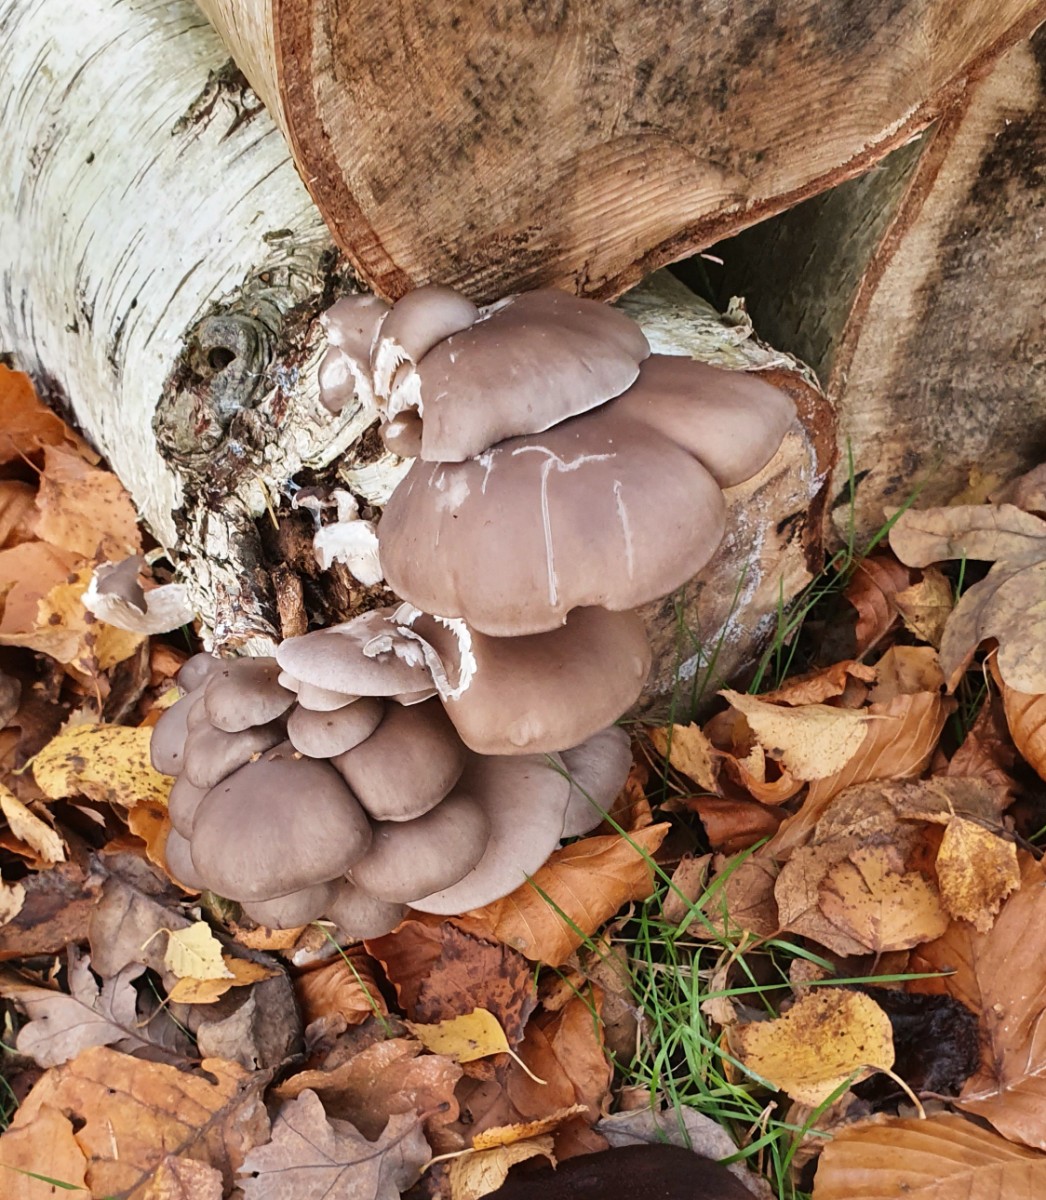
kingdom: Fungi
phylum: Basidiomycota
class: Agaricomycetes
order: Agaricales
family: Pleurotaceae
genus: Pleurotus
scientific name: Pleurotus ostreatus
